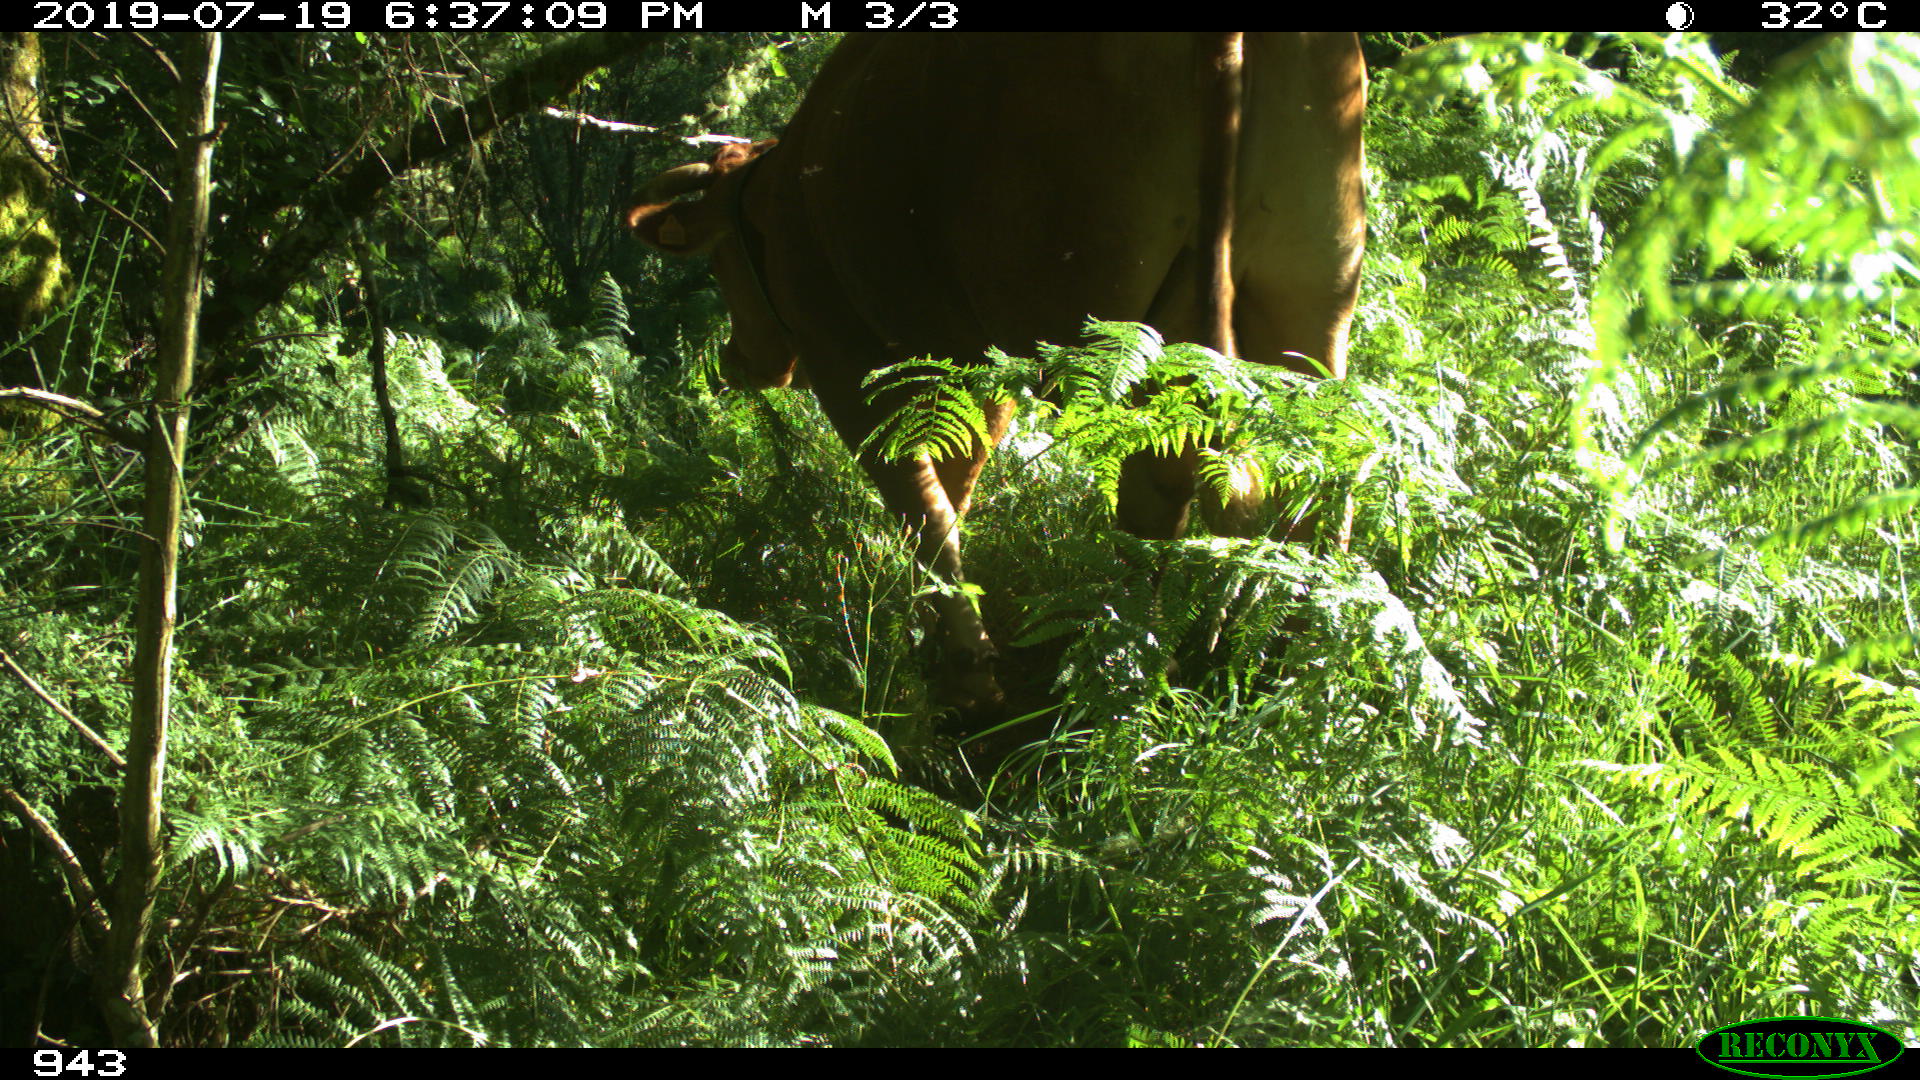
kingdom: Animalia
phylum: Chordata
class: Mammalia
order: Artiodactyla
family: Bovidae
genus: Bos
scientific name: Bos taurus
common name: Domesticated cattle
